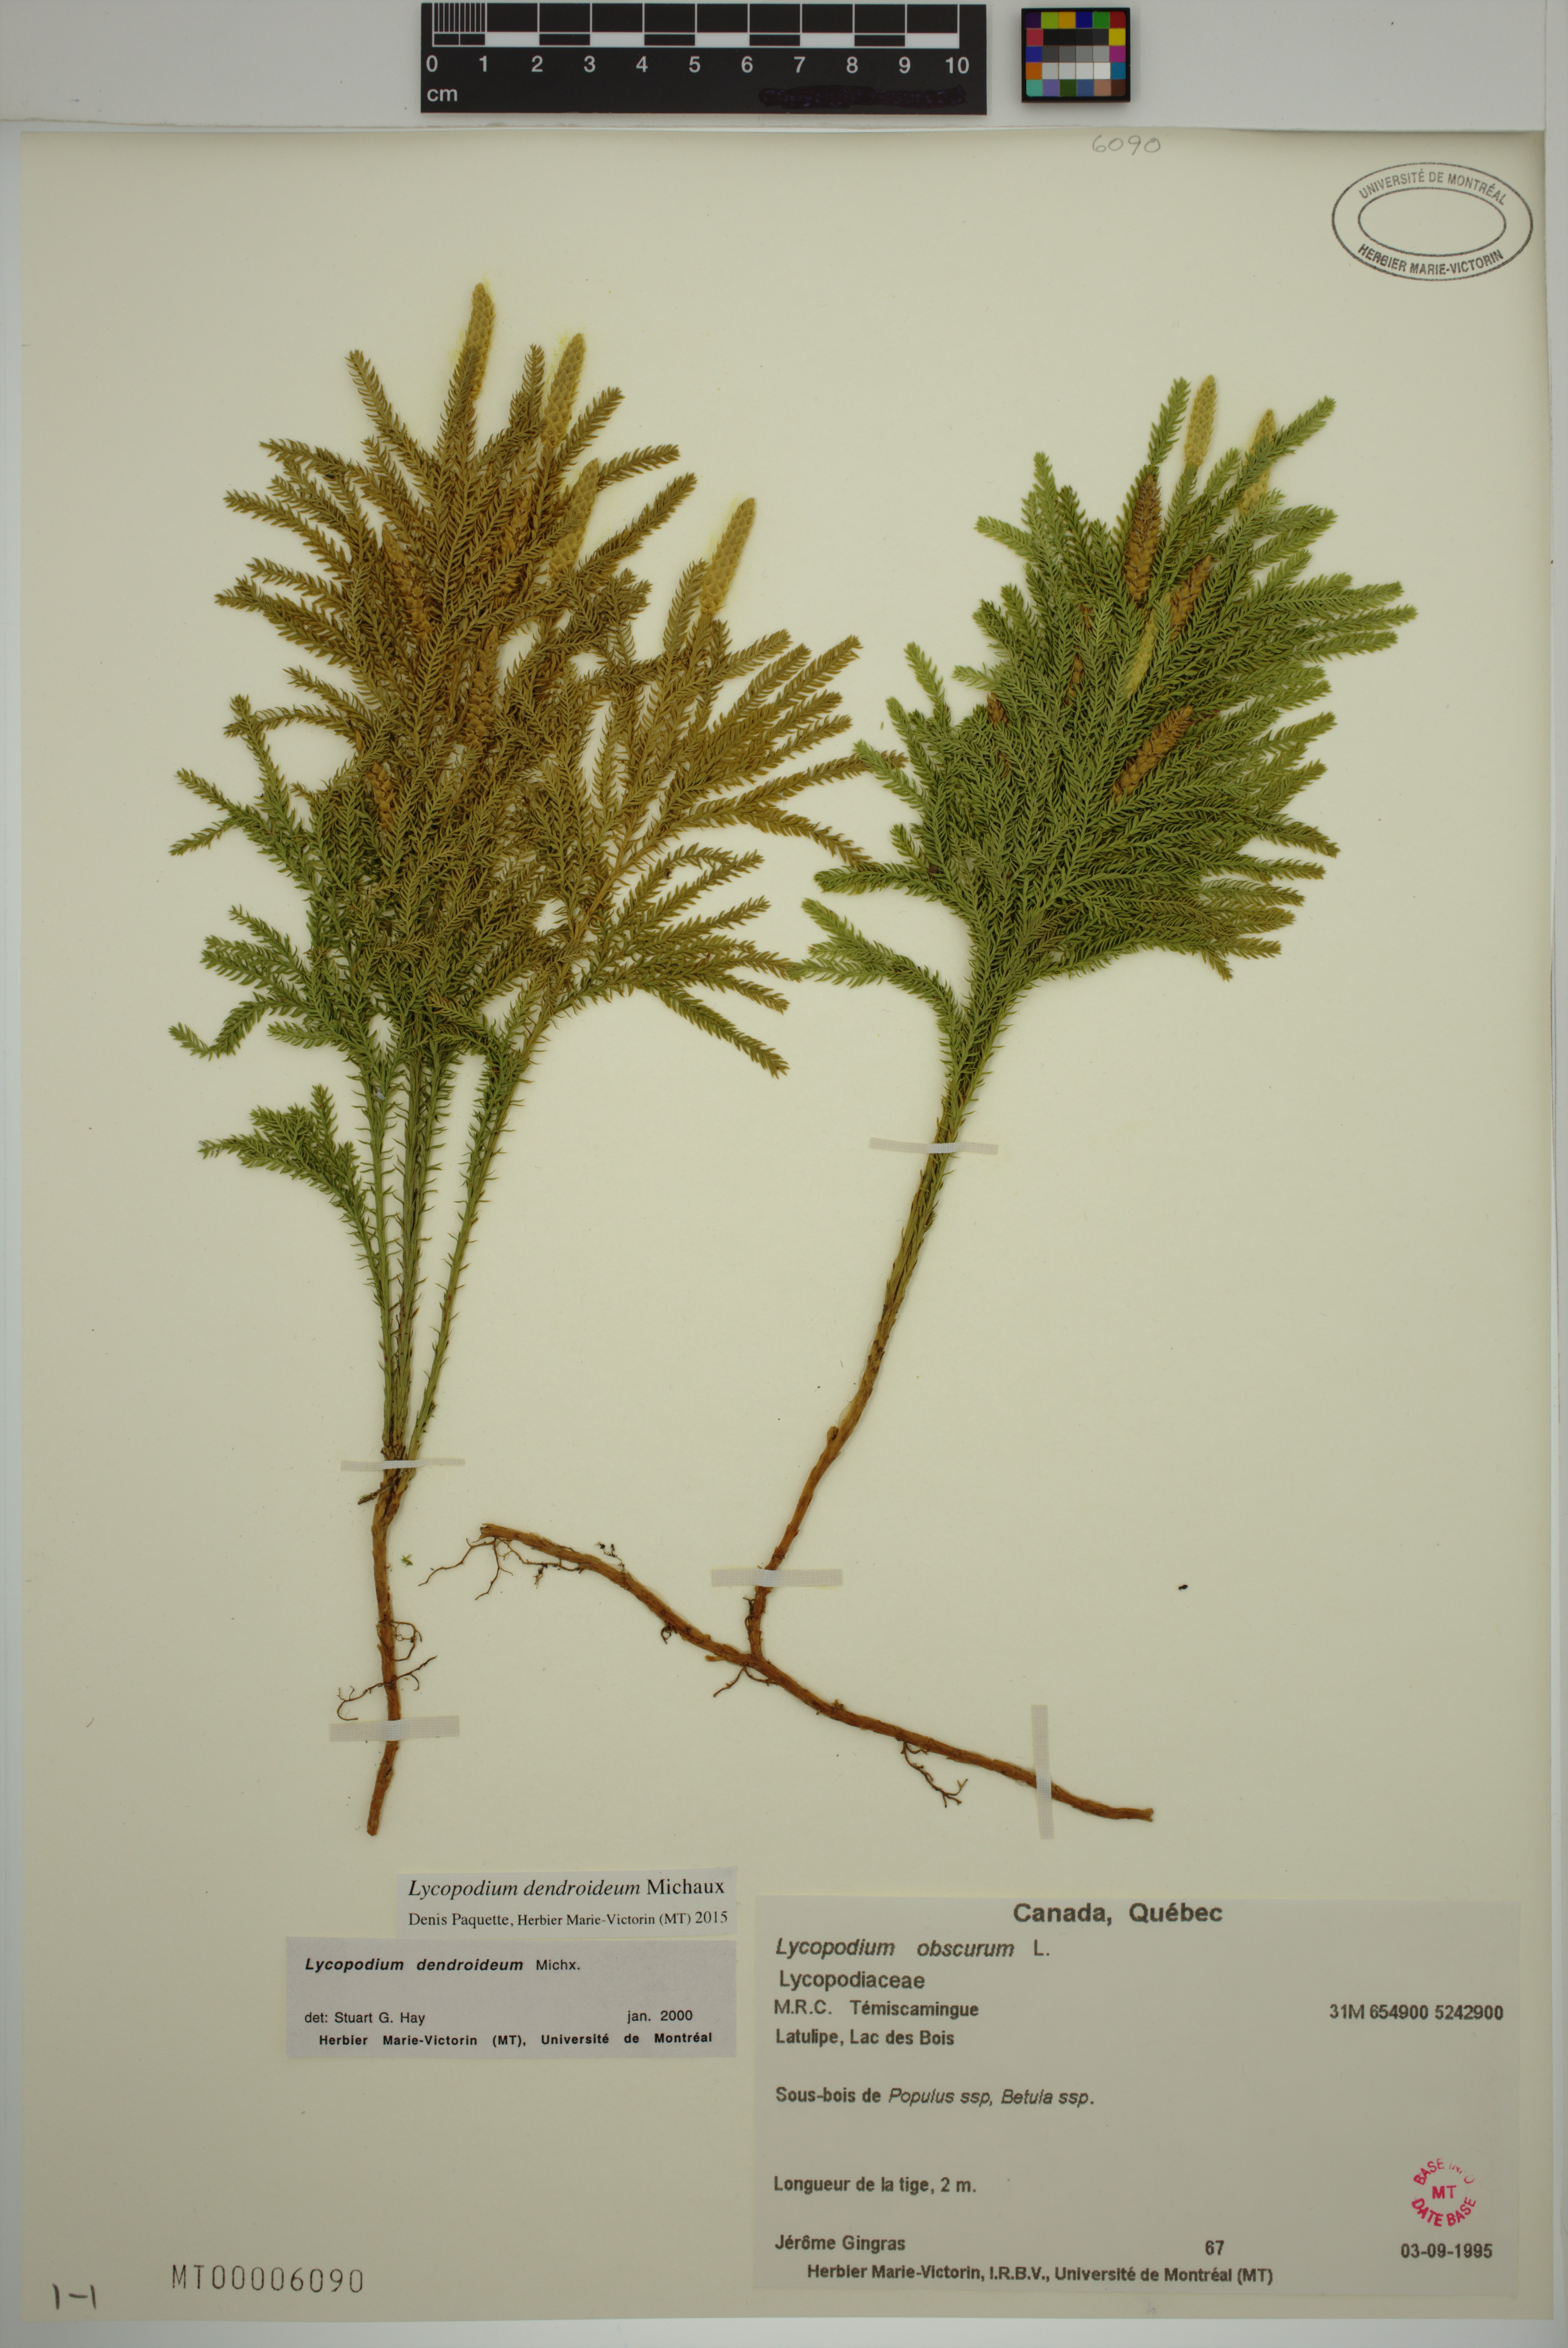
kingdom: Plantae
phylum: Tracheophyta
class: Lycopodiopsida
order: Lycopodiales
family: Lycopodiaceae
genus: Dendrolycopodium
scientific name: Dendrolycopodium dendroideum
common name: Northern tree-clubmoss
